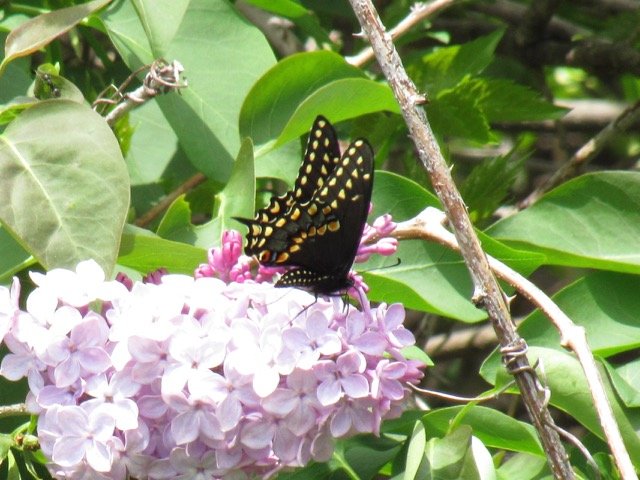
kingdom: Animalia
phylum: Arthropoda
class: Insecta
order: Lepidoptera
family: Papilionidae
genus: Papilio
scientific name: Papilio polyxenes
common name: Black Swallowtail
